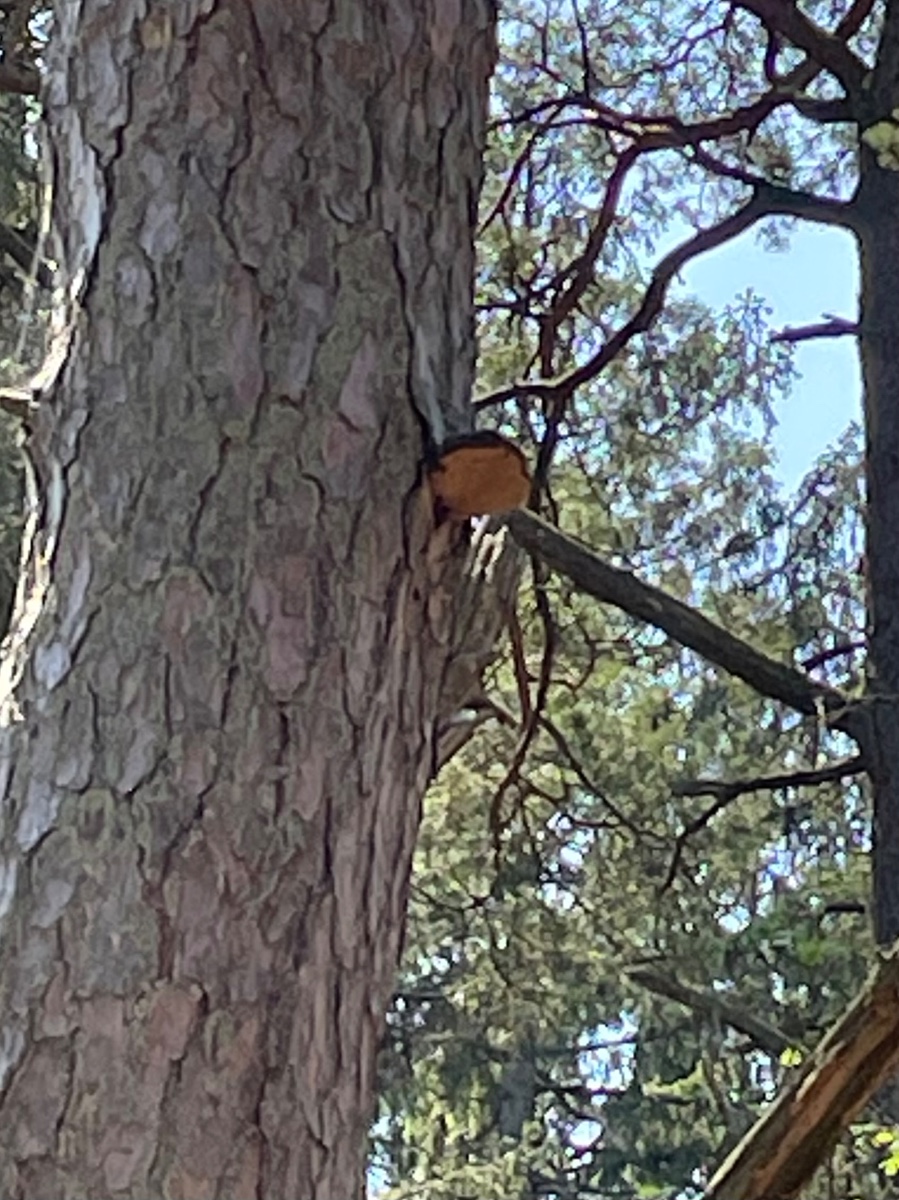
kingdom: Fungi
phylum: Basidiomycota
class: Agaricomycetes
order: Hymenochaetales
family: Hymenochaetaceae
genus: Porodaedalea
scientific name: Porodaedalea pini
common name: fyrre-ildporesvamp
